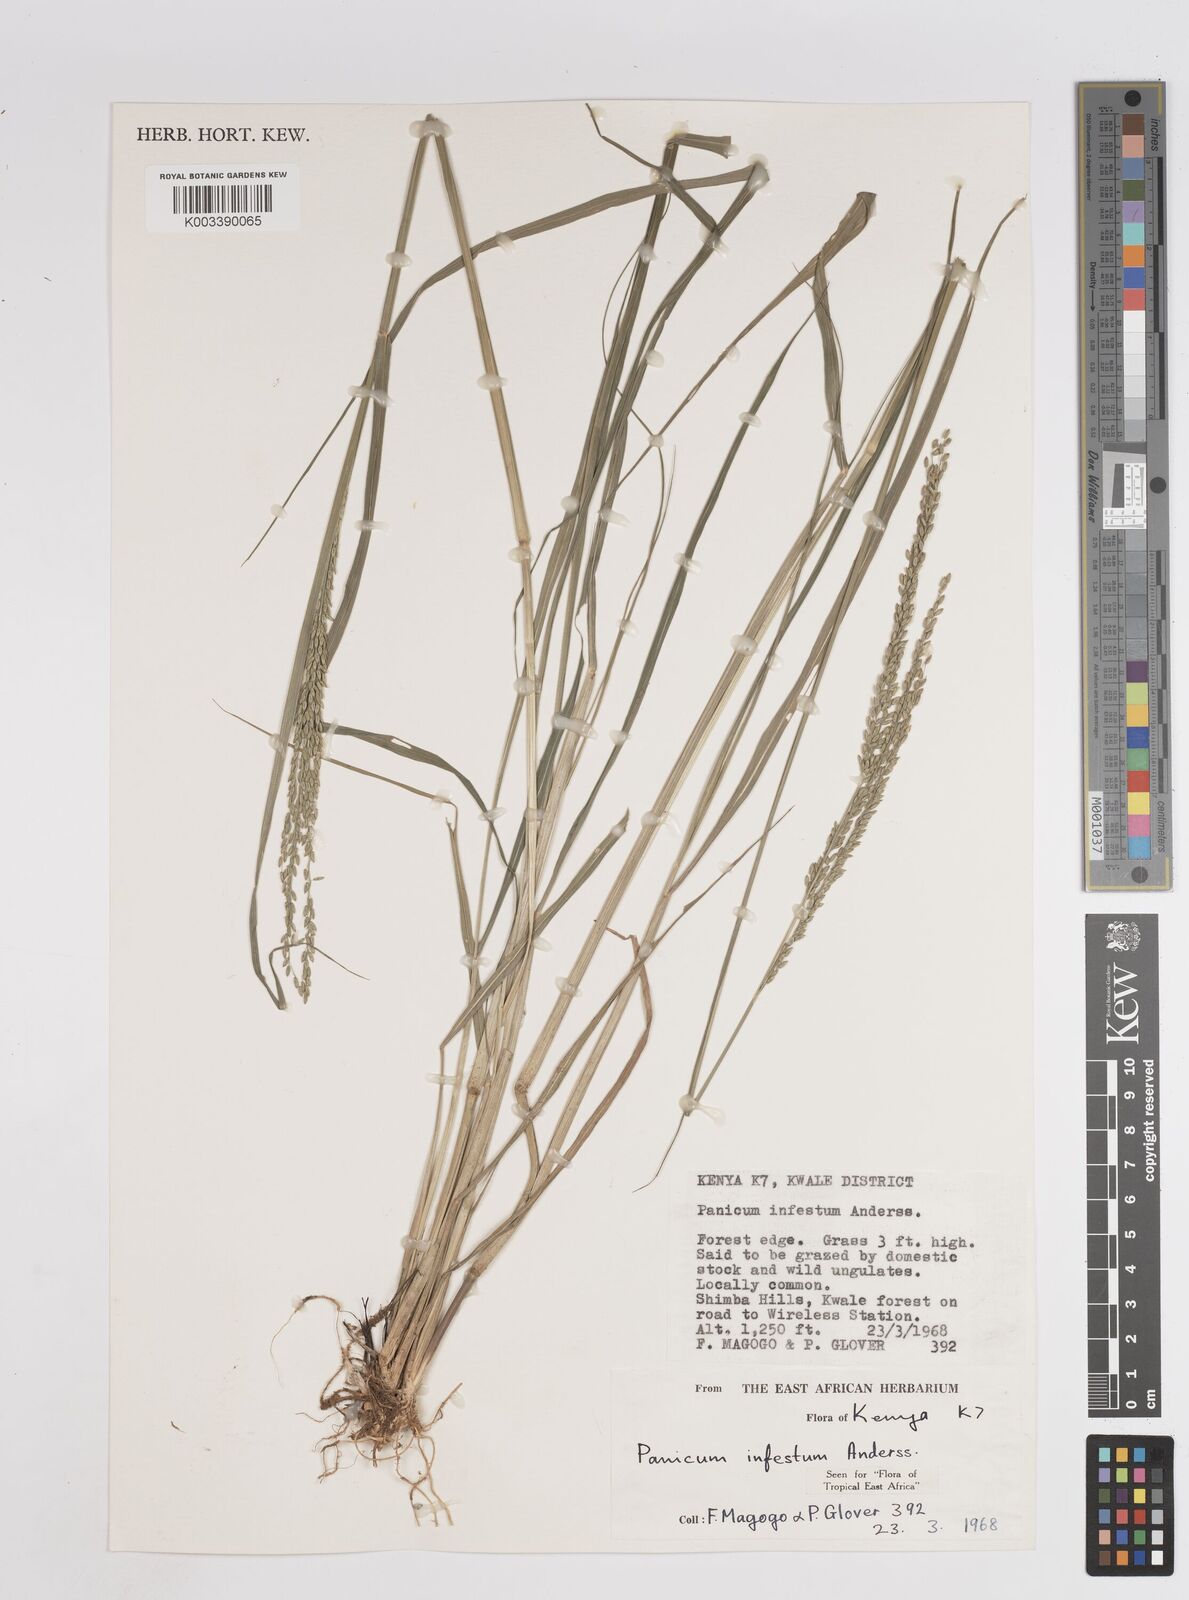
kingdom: Plantae
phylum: Tracheophyta
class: Liliopsida
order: Poales
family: Poaceae
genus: Megathyrsus
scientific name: Megathyrsus infestus
